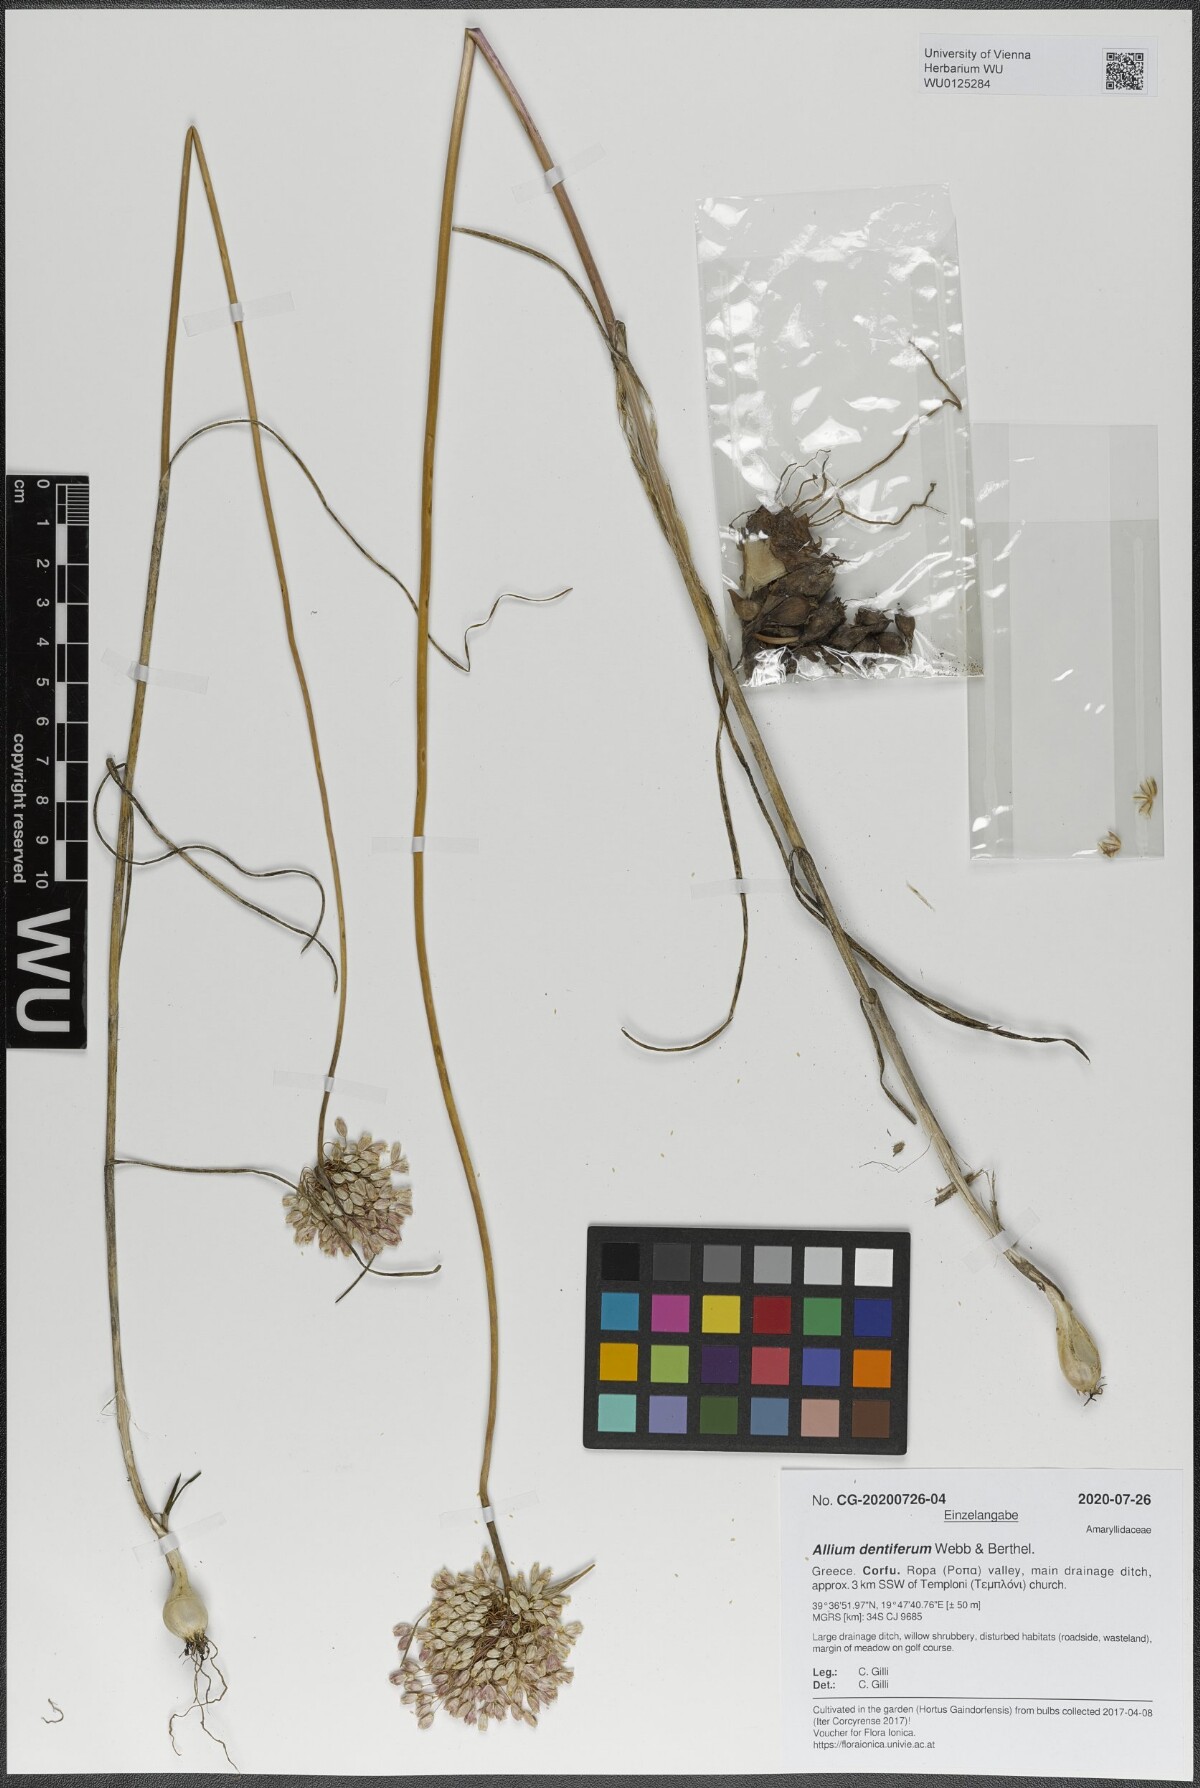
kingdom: Plantae
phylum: Tracheophyta
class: Liliopsida
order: Asparagales
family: Amaryllidaceae
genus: Allium
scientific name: Allium longispathum
